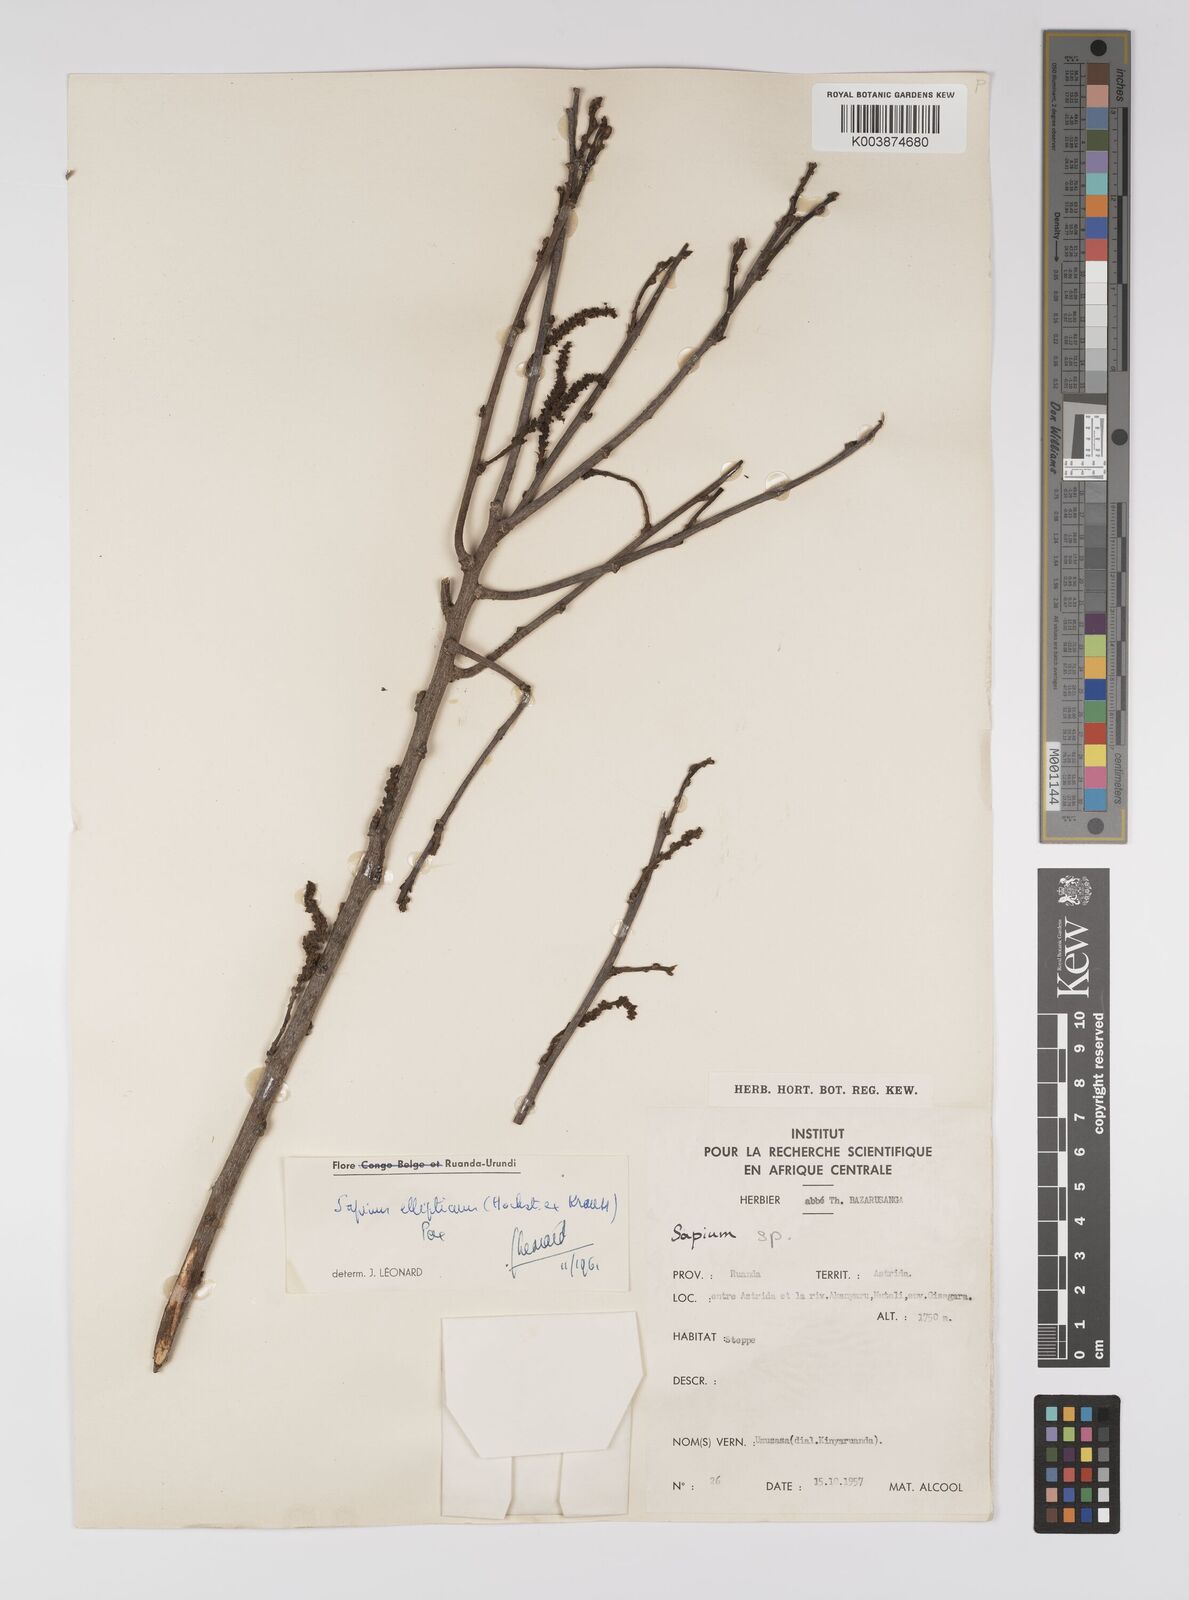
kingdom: Plantae
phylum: Tracheophyta
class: Magnoliopsida
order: Malpighiales
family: Euphorbiaceae
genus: Shirakiopsis
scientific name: Shirakiopsis elliptica
